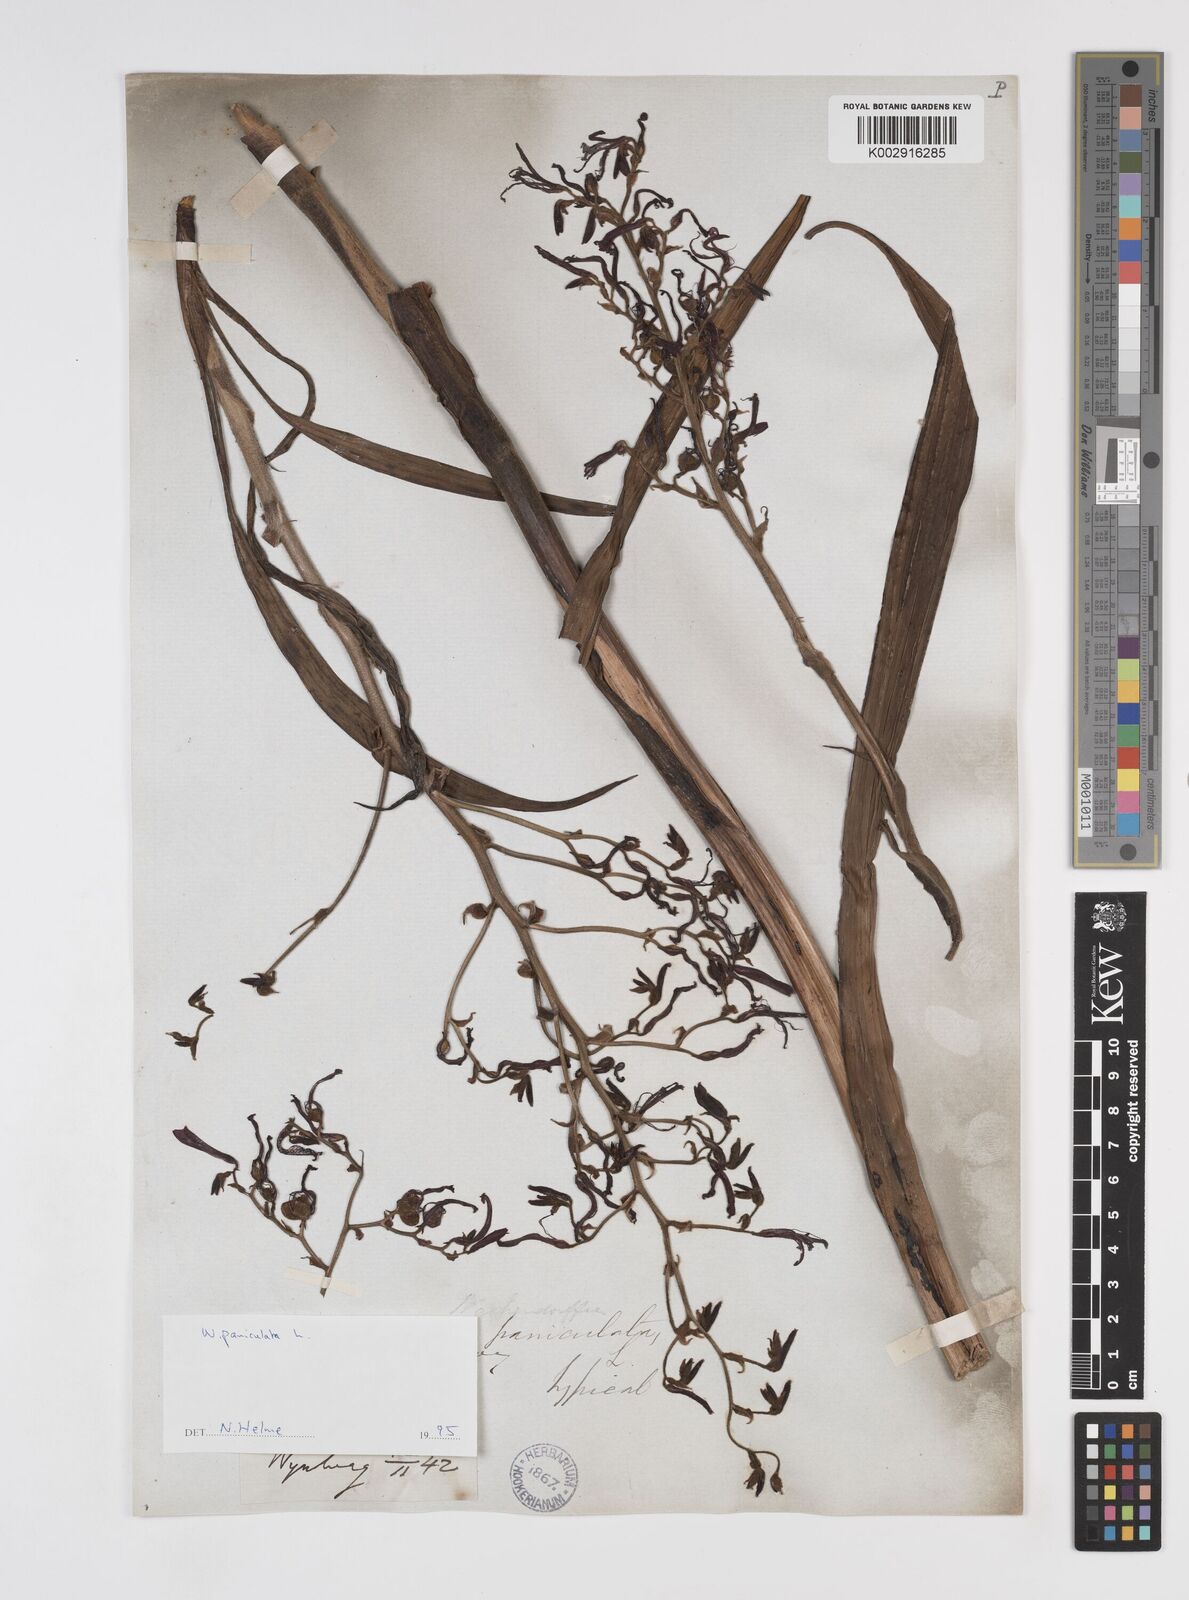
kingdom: Plantae
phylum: Tracheophyta
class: Liliopsida
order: Commelinales
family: Haemodoraceae
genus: Wachendorfia
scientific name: Wachendorfia paniculata
